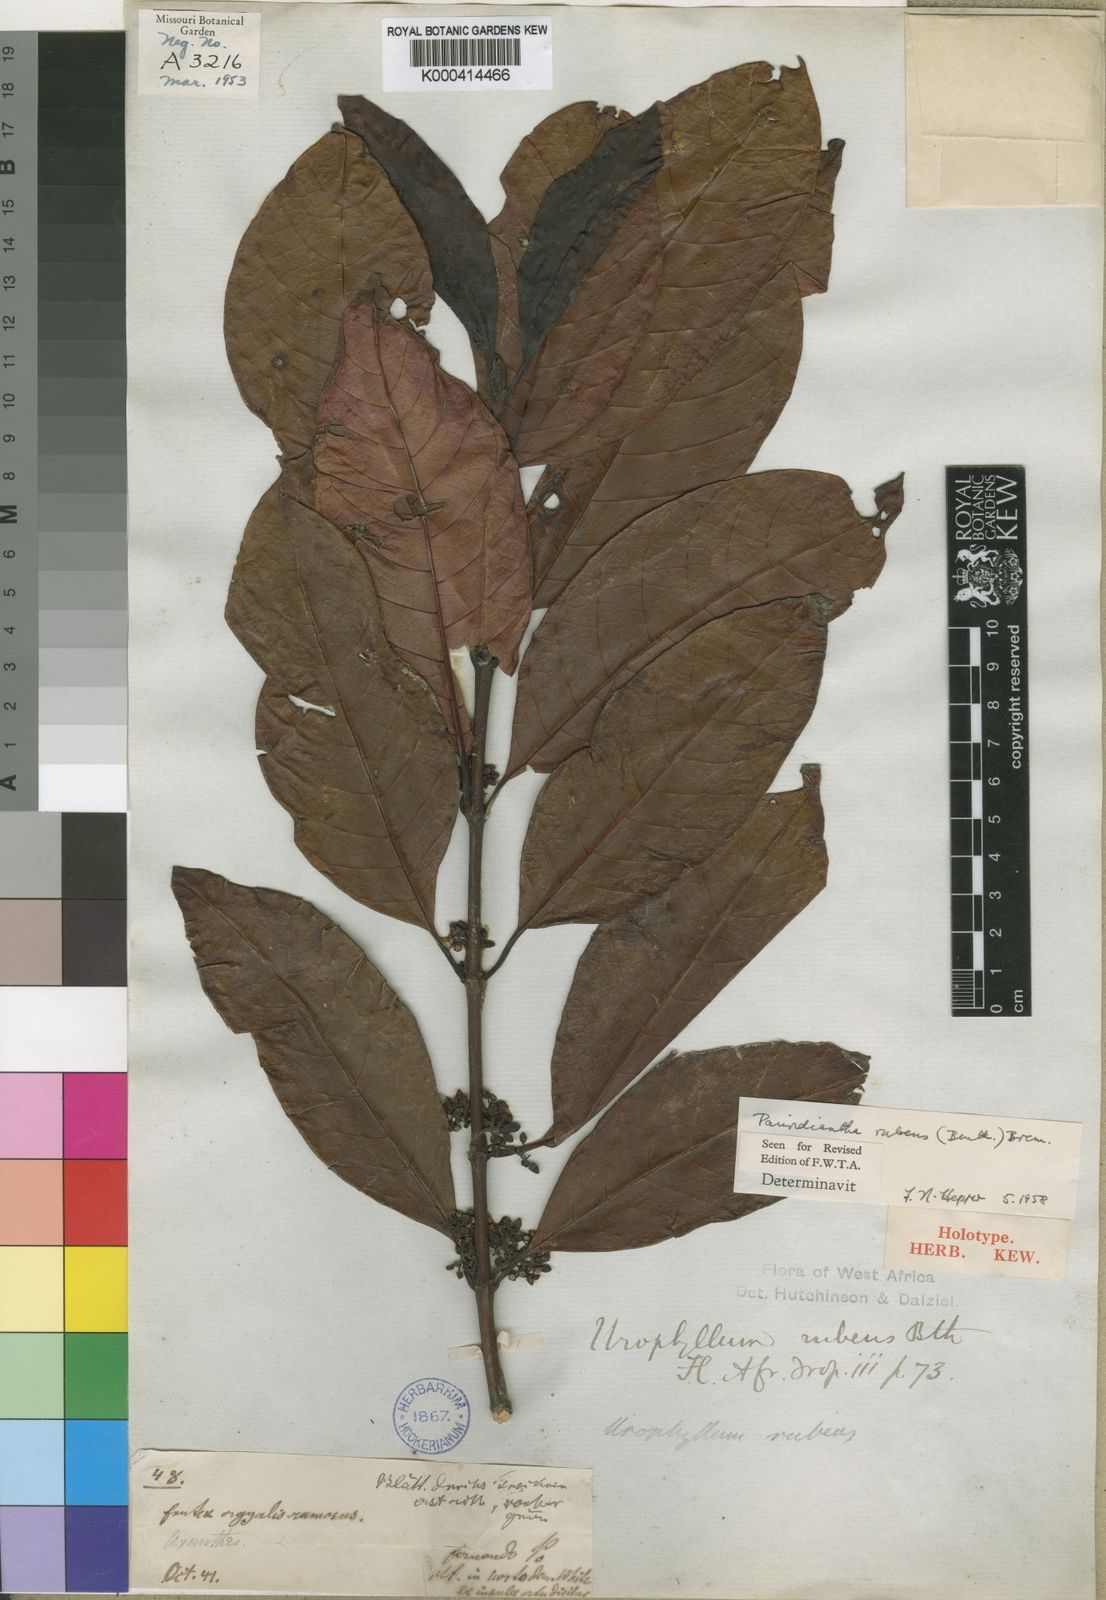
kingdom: Plantae
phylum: Tracheophyta
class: Magnoliopsida
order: Gentianales
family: Rubiaceae
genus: Pauridiantha
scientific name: Pauridiantha rubens
